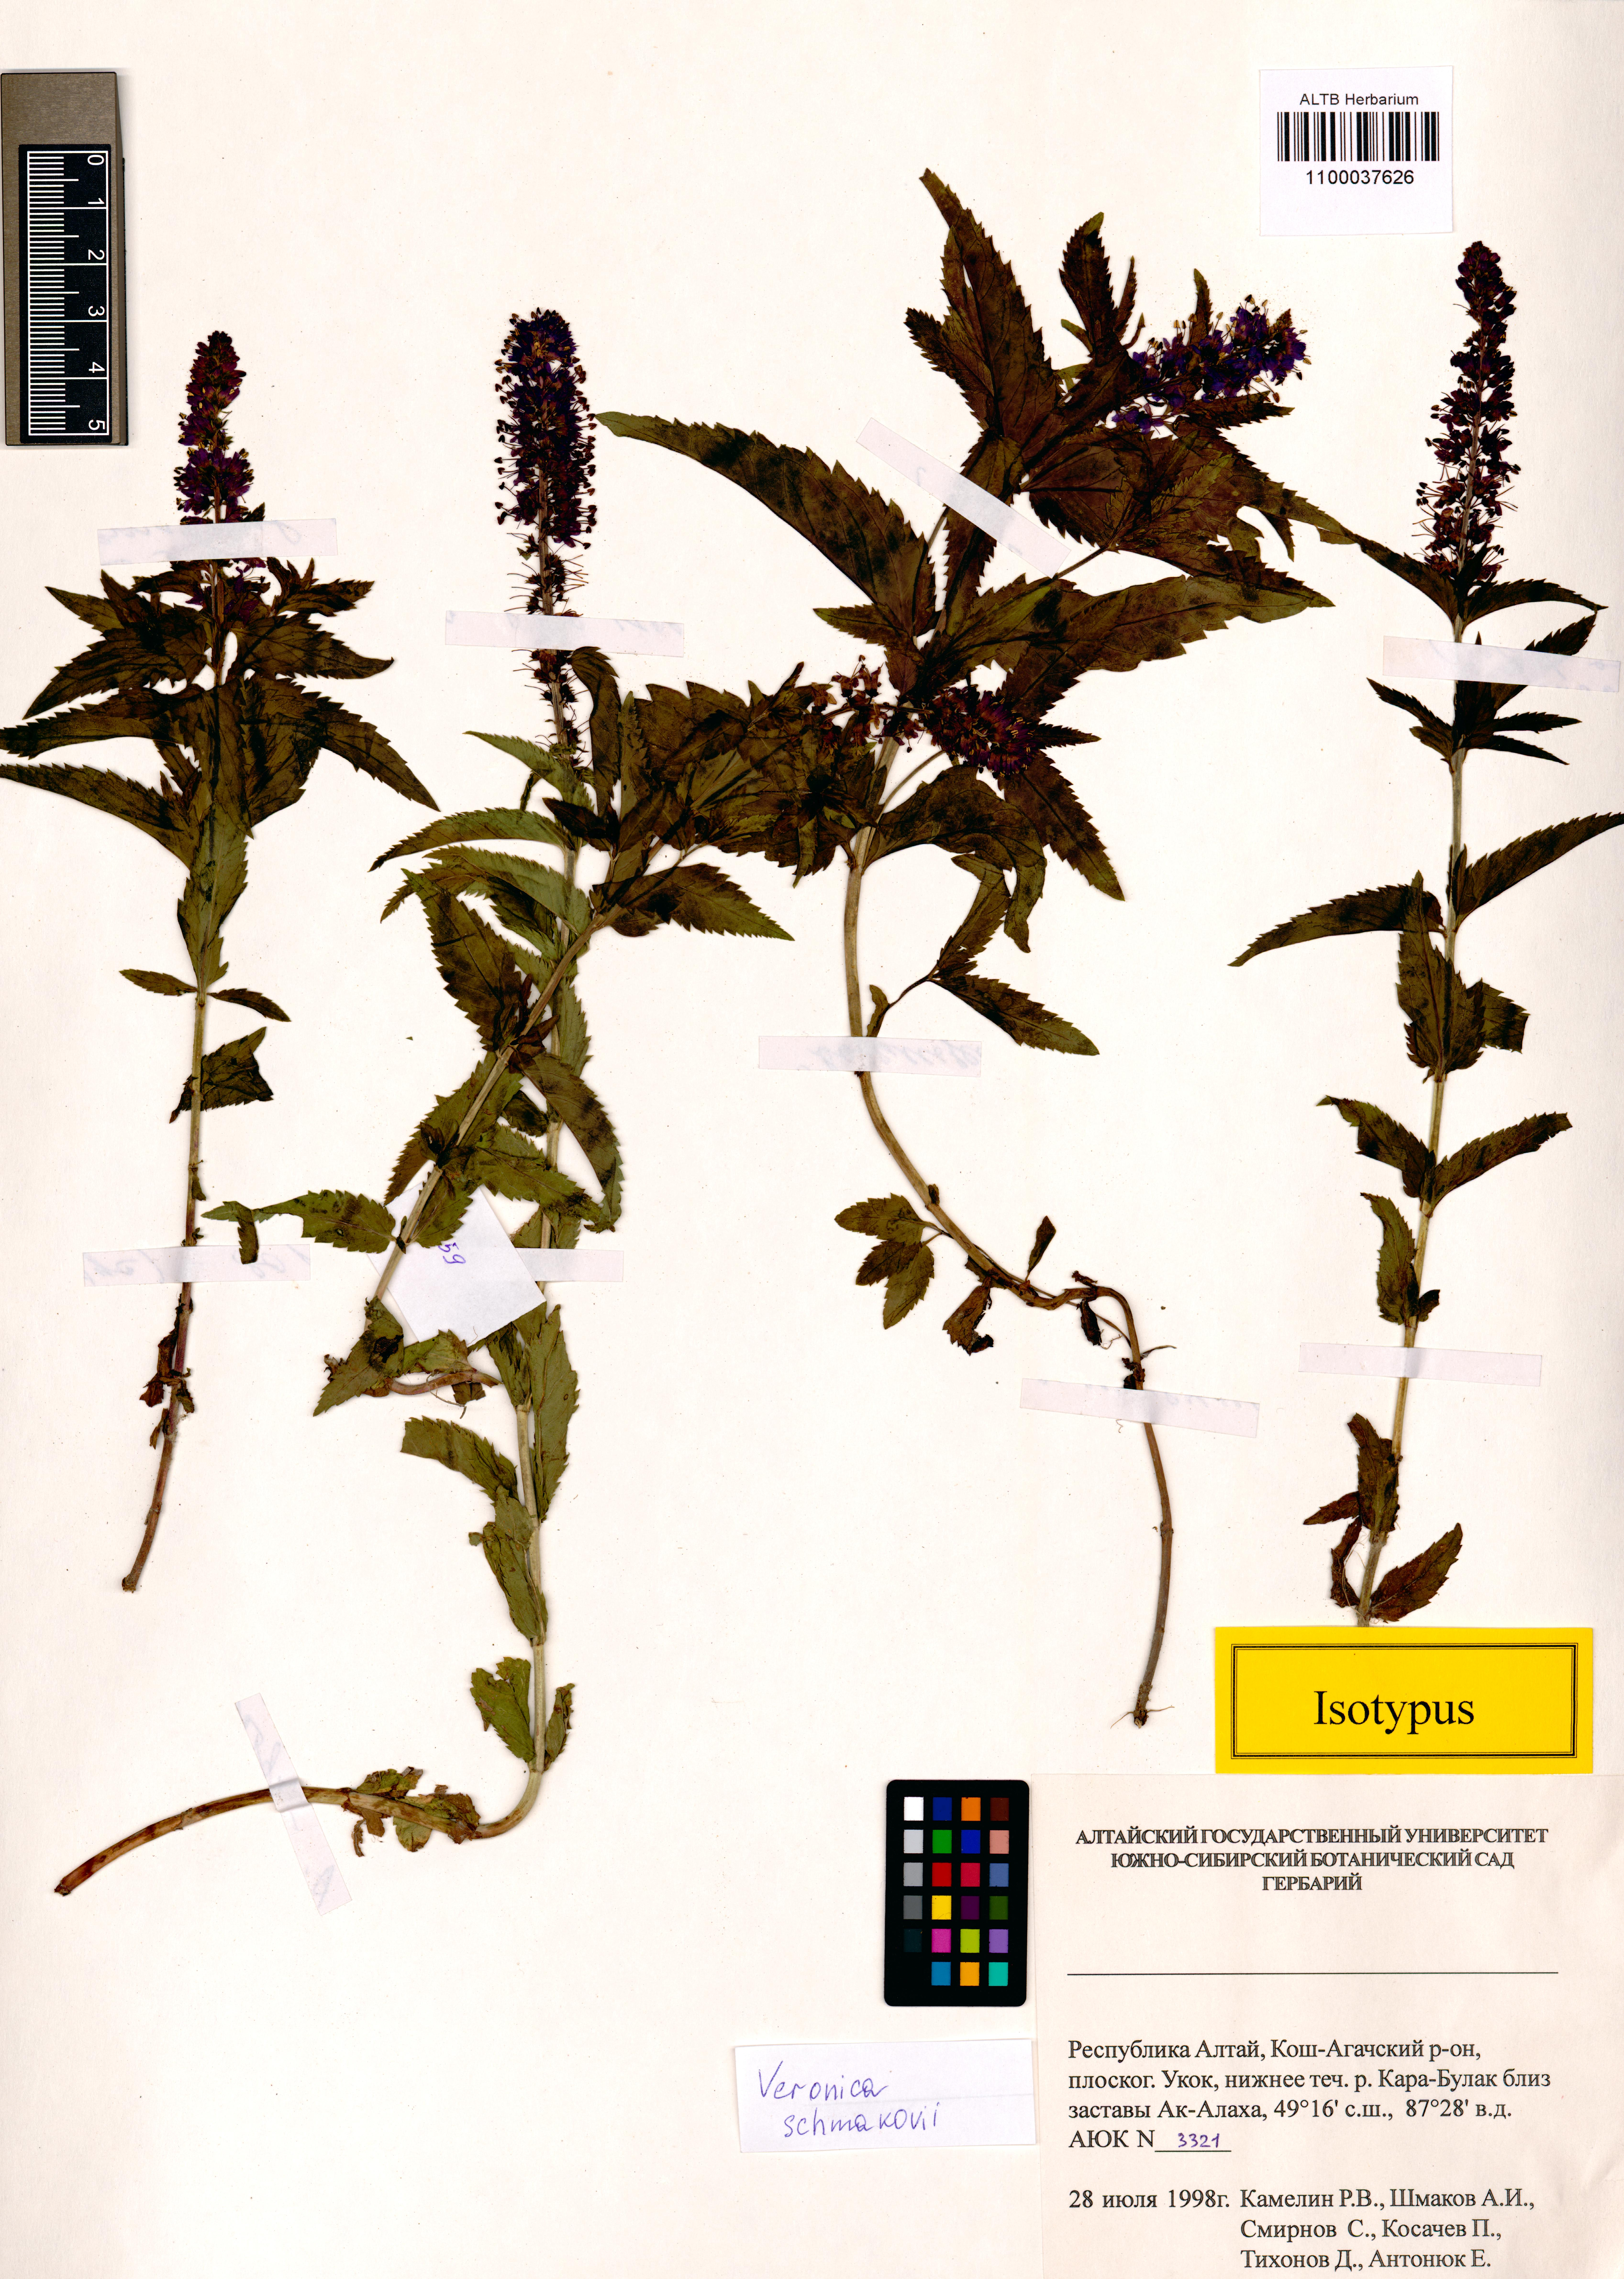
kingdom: Plantae
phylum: Tracheophyta
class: Magnoliopsida
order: Lamiales
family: Plantaginaceae
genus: Veronica
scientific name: Veronica schmakovii
